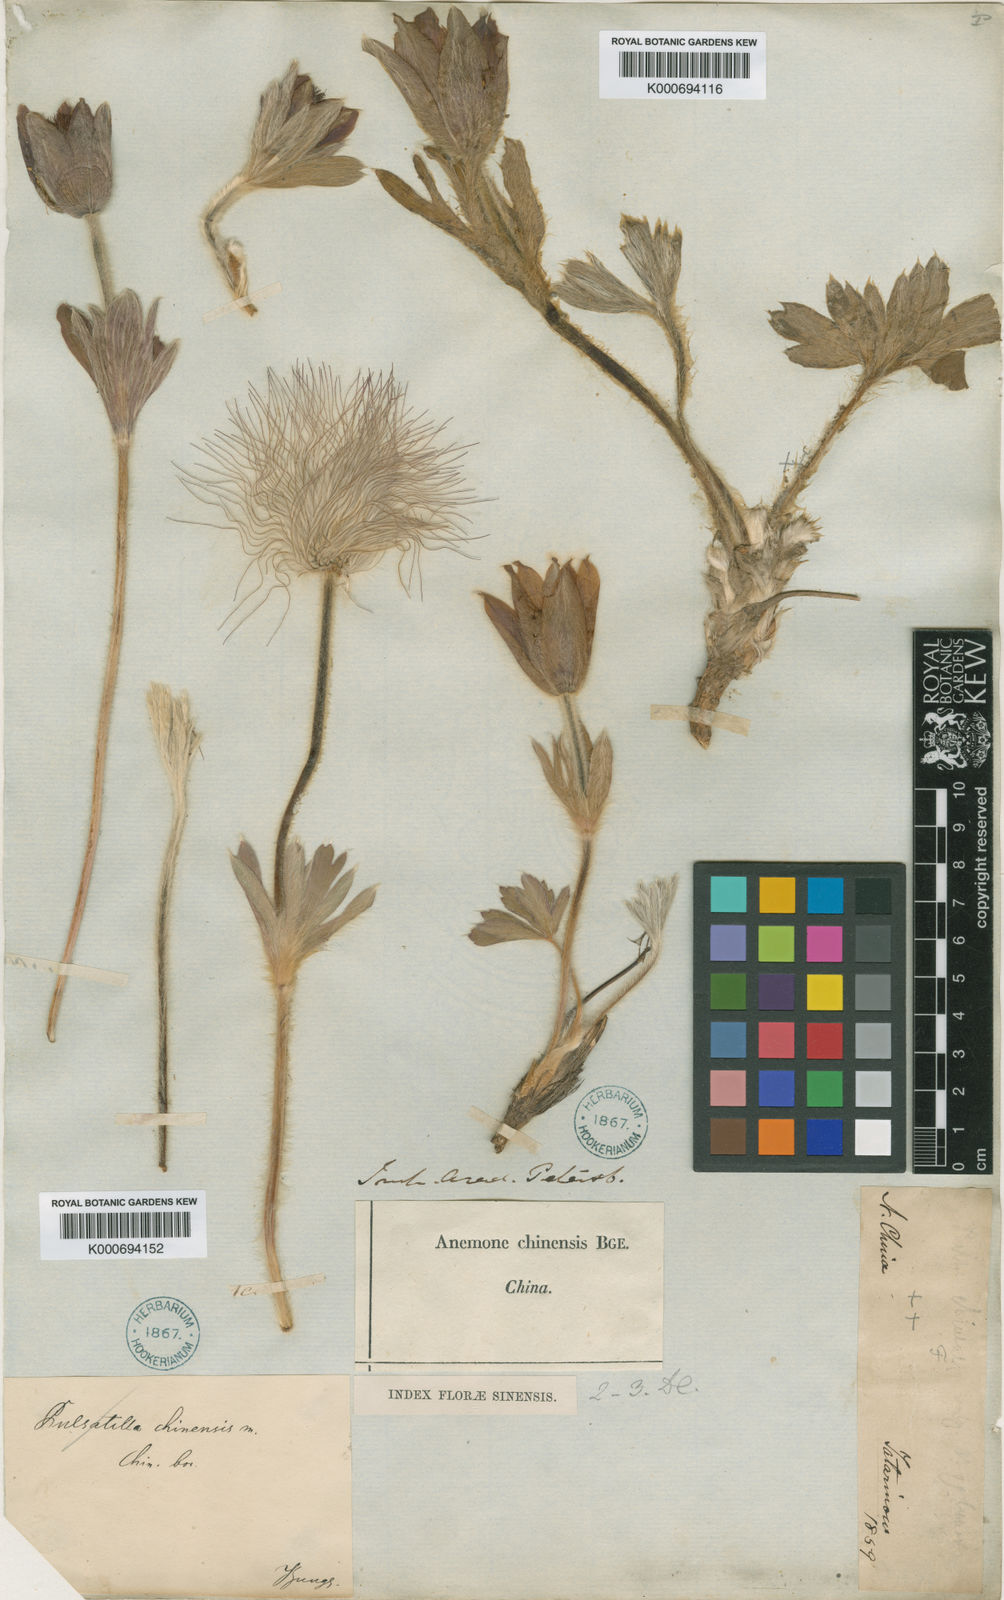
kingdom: Plantae
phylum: Tracheophyta
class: Magnoliopsida
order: Ranunculales
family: Ranunculaceae
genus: Pulsatilla
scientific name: Pulsatilla chinensis
